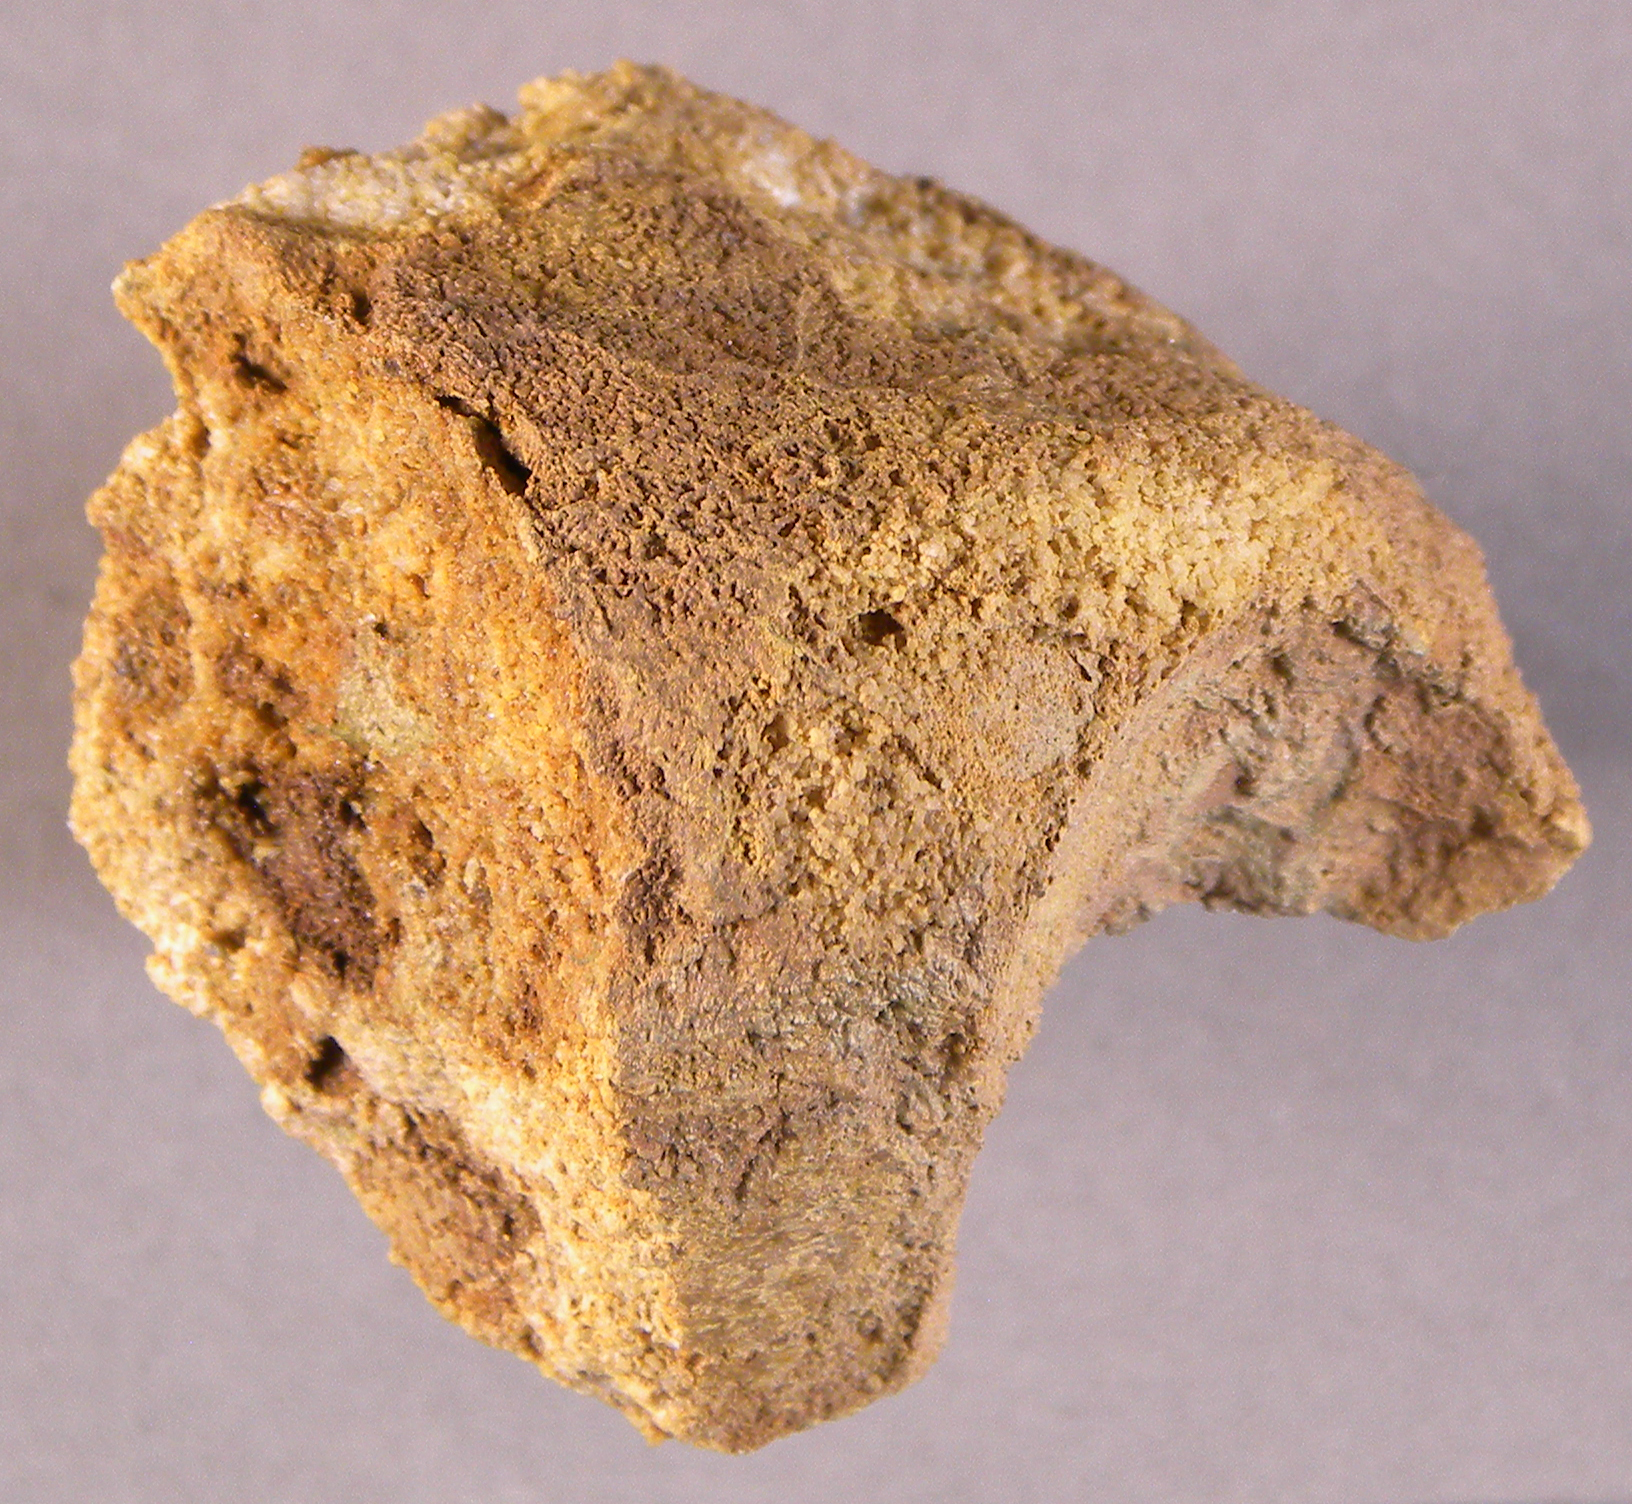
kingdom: Animalia
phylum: Mollusca
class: Bivalvia
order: Myalinida
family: Ambonychiidae
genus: Mytilarca
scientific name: Mytilarca
